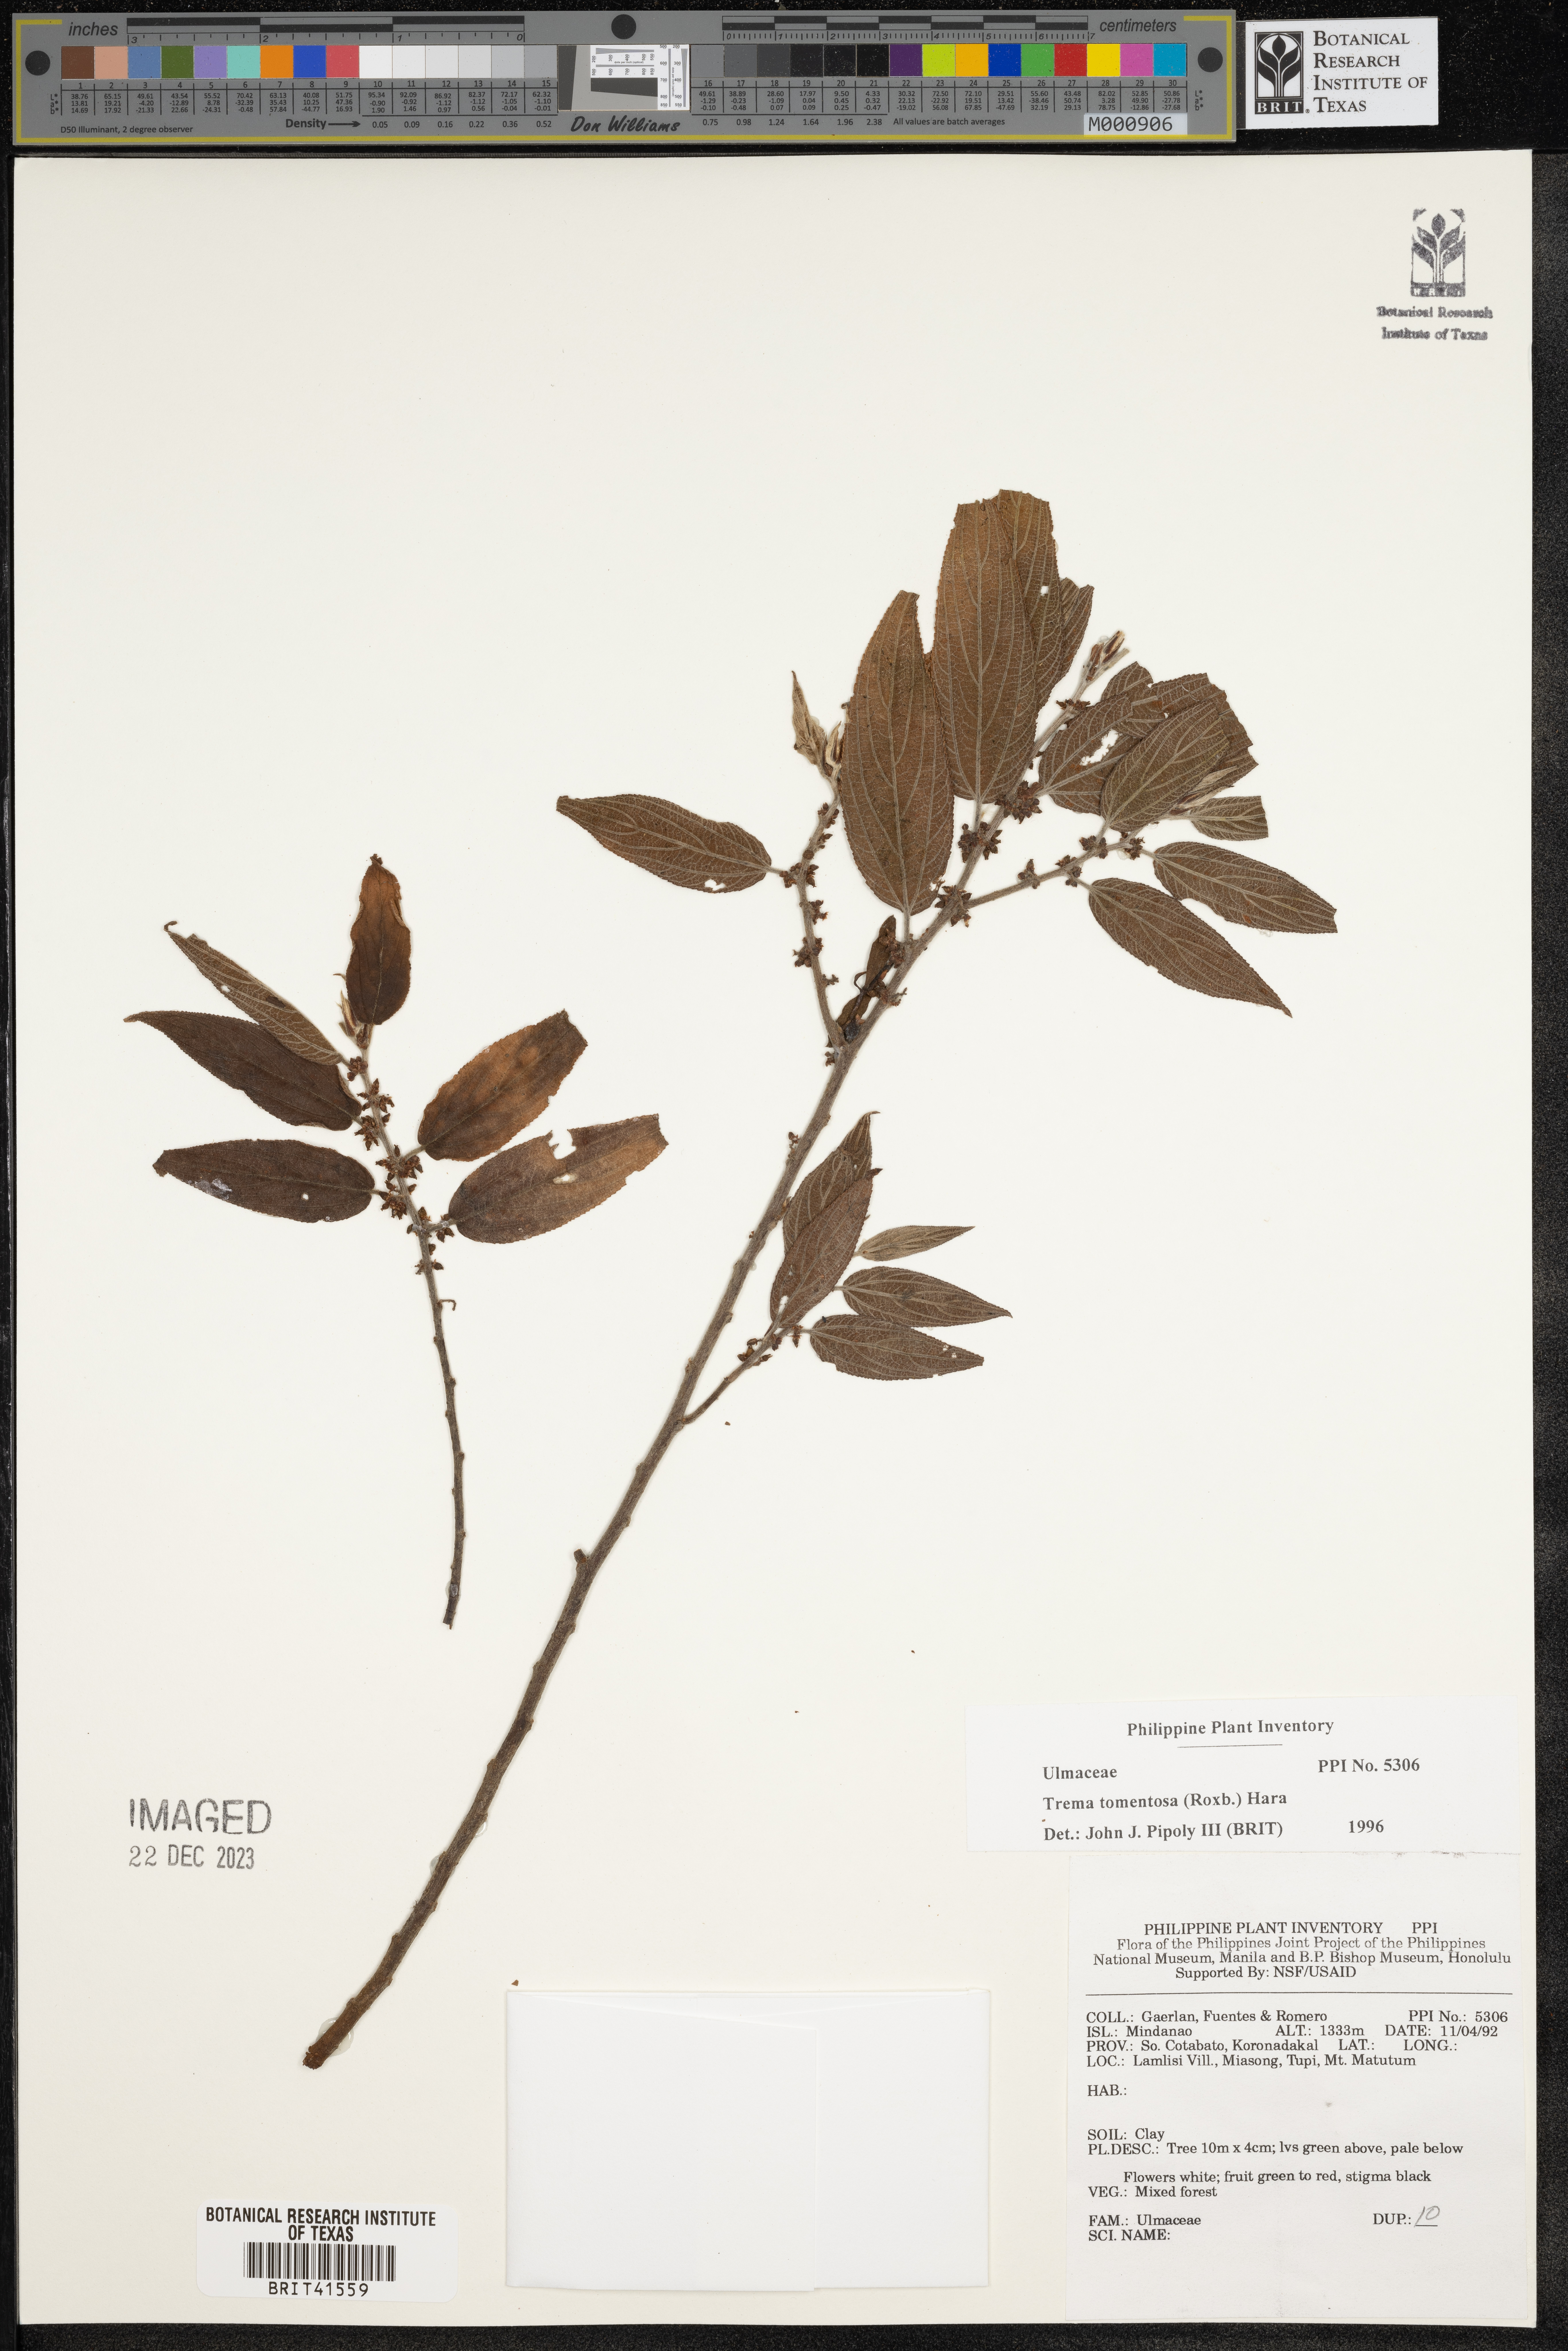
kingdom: Plantae
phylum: Tracheophyta
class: Magnoliopsida
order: Rosales
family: Cannabaceae
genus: Trema
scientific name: Trema tomentosum
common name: Peach-leaf-poisonbush
